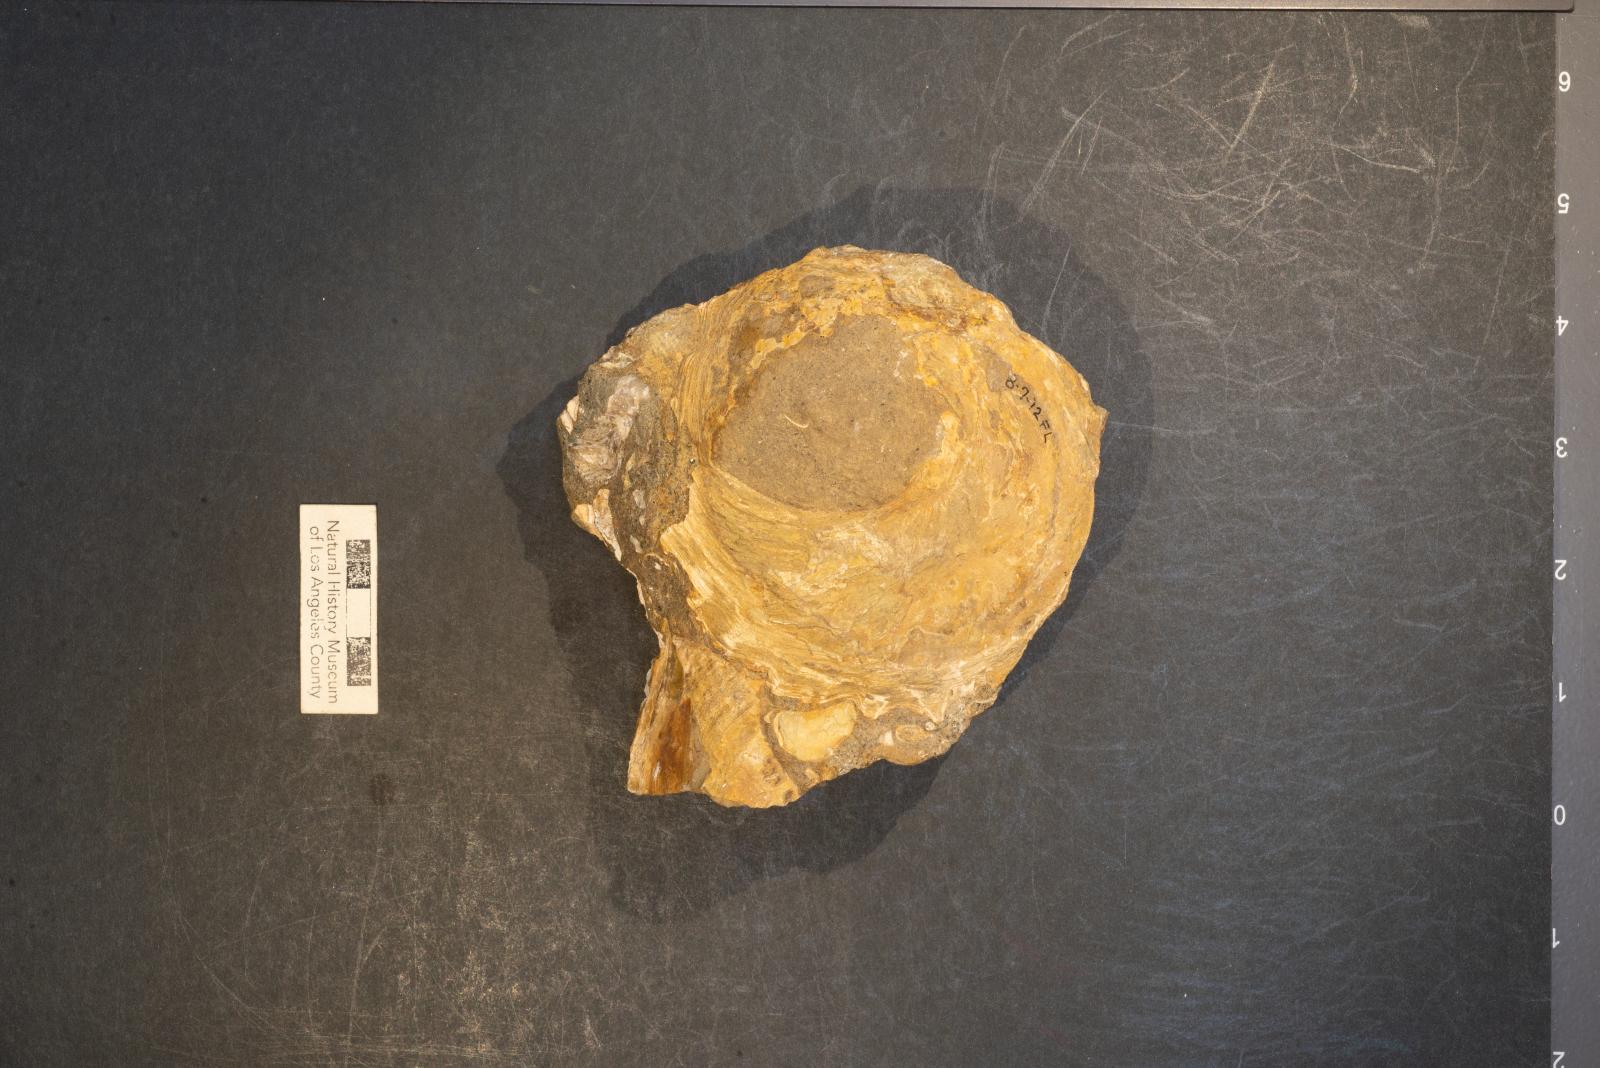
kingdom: Animalia
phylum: Mollusca
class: Gastropoda
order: Littorinimorpha
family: Xenophoridae
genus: Xenophora
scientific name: Xenophora hermax
